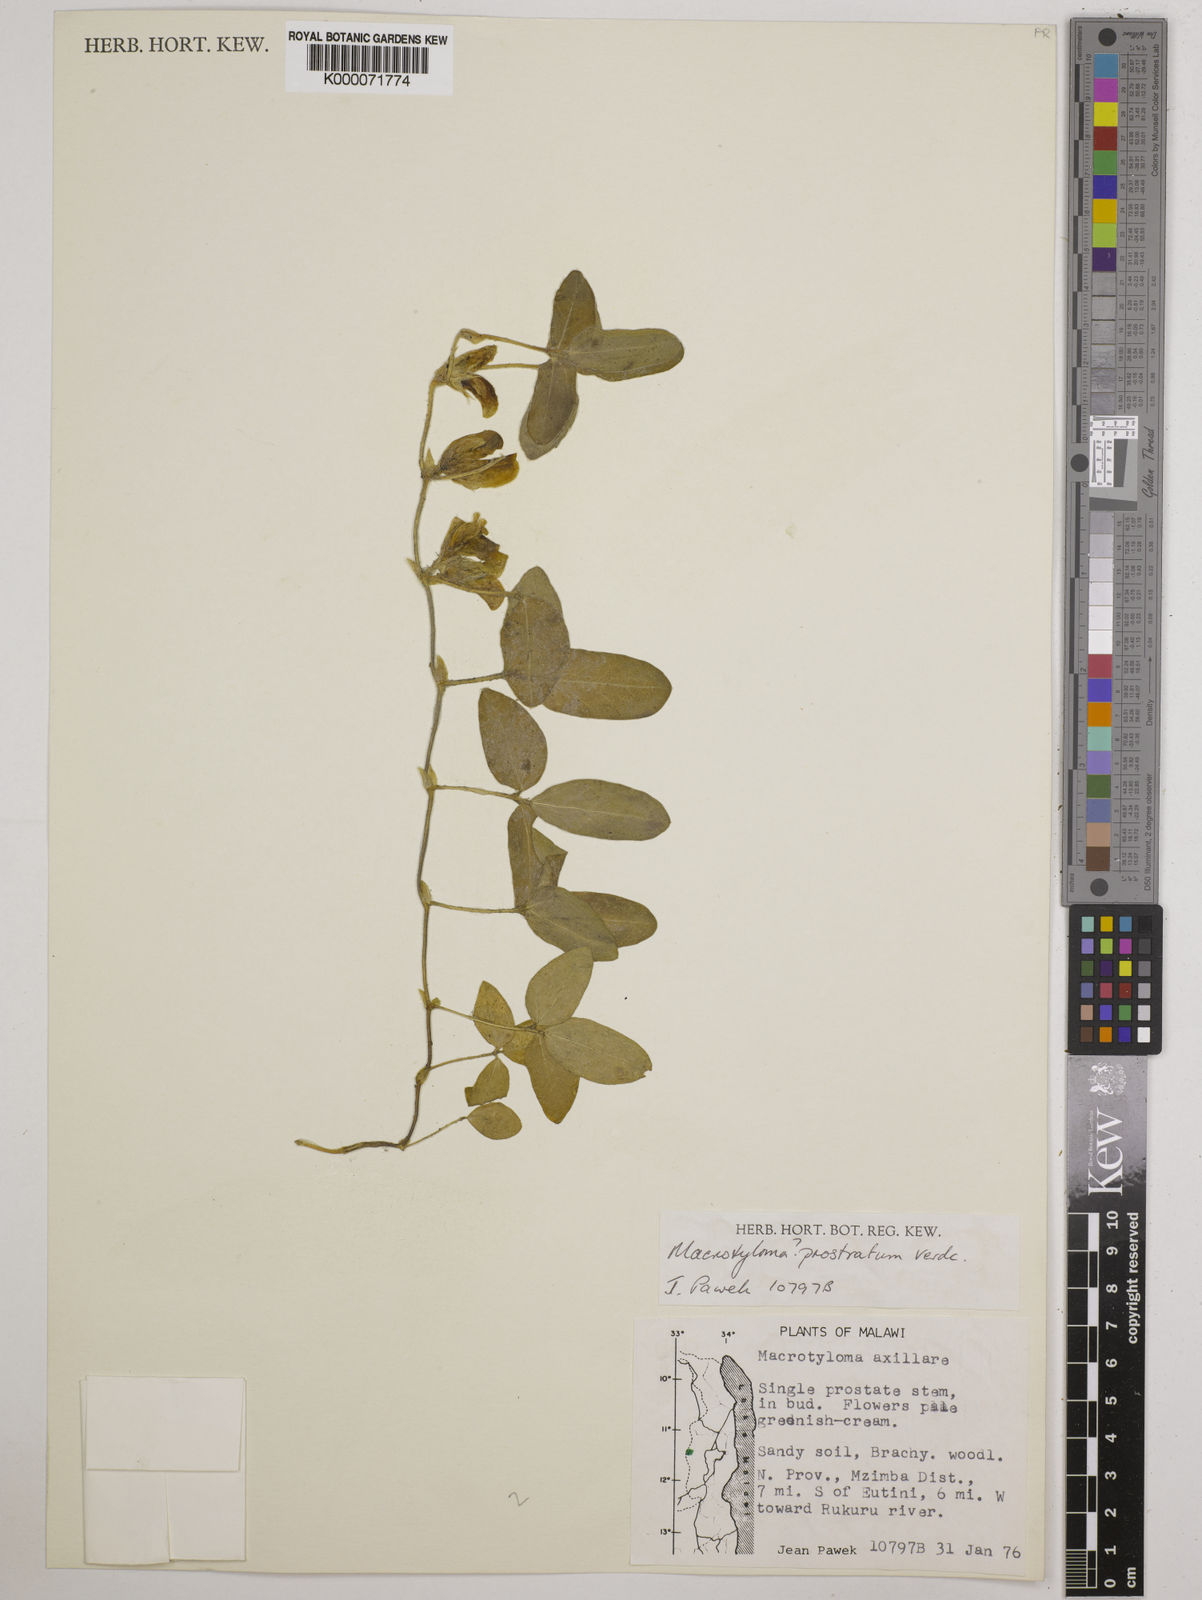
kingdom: Plantae
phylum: Tracheophyta
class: Magnoliopsida
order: Fabales
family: Fabaceae
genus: Macrotyloma
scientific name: Macrotyloma prostratum
